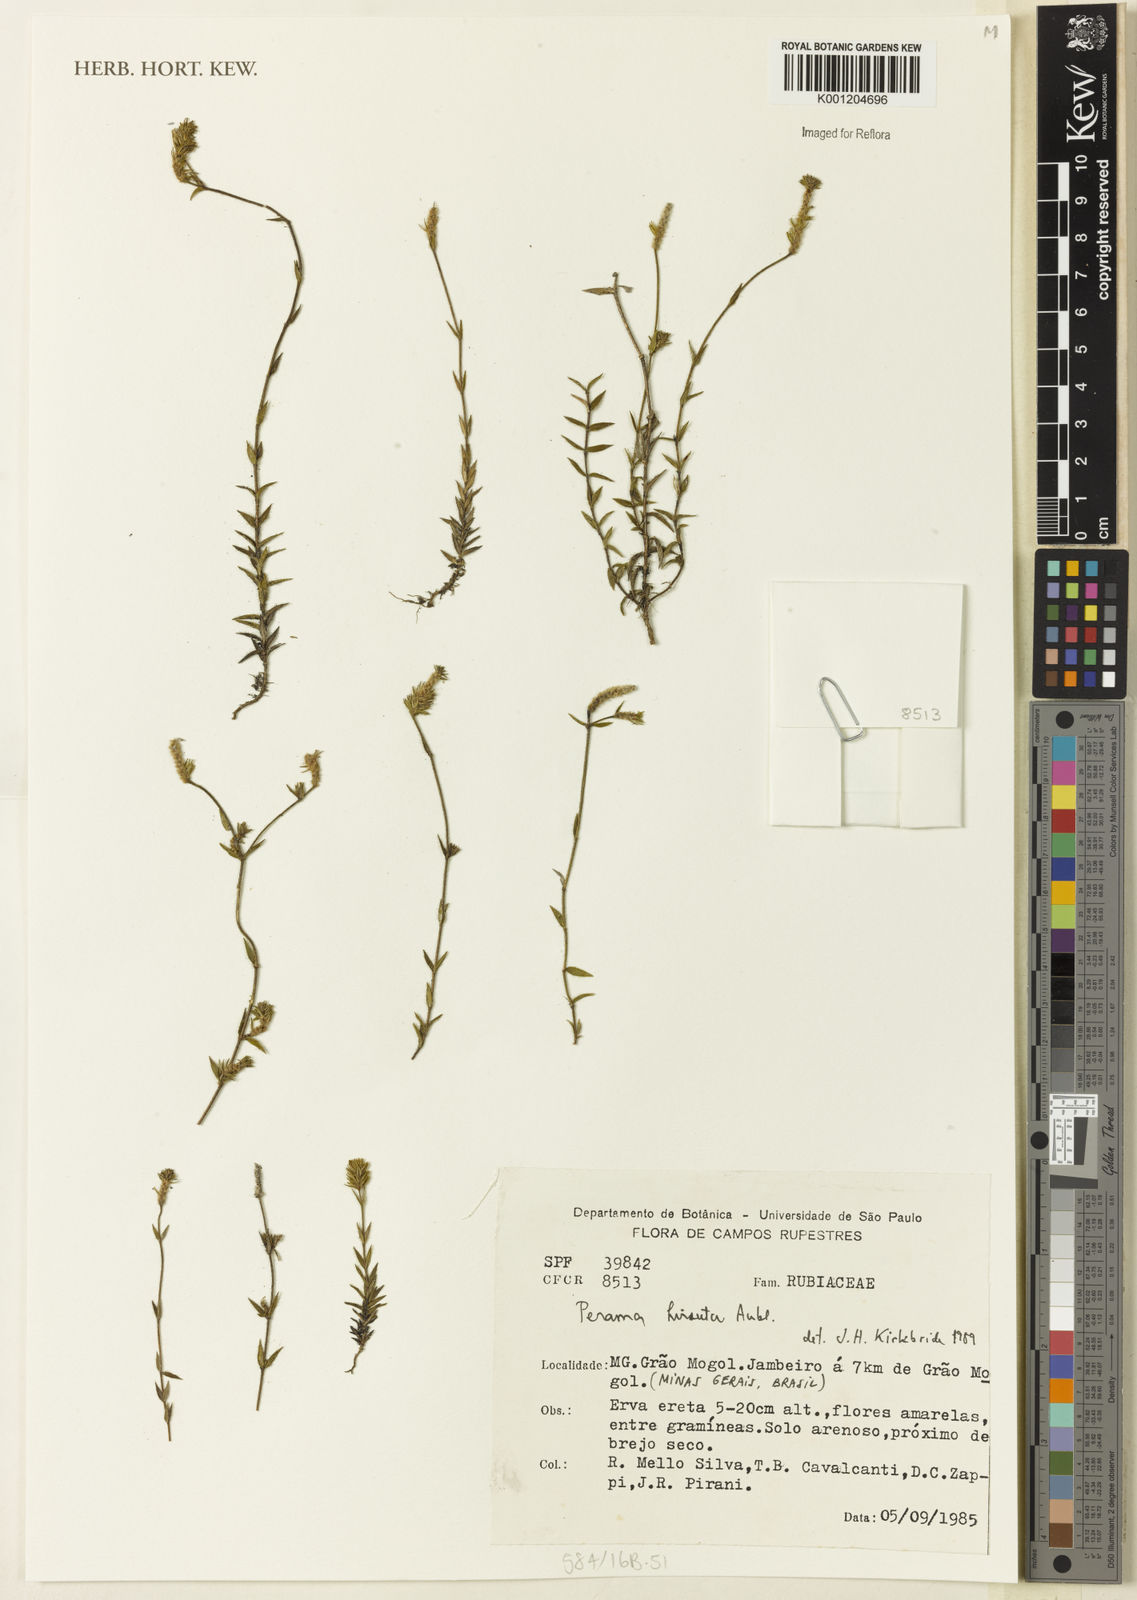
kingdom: Plantae
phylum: Tracheophyta
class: Magnoliopsida
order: Gentianales
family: Rubiaceae
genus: Perama
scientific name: Perama hirsuta
